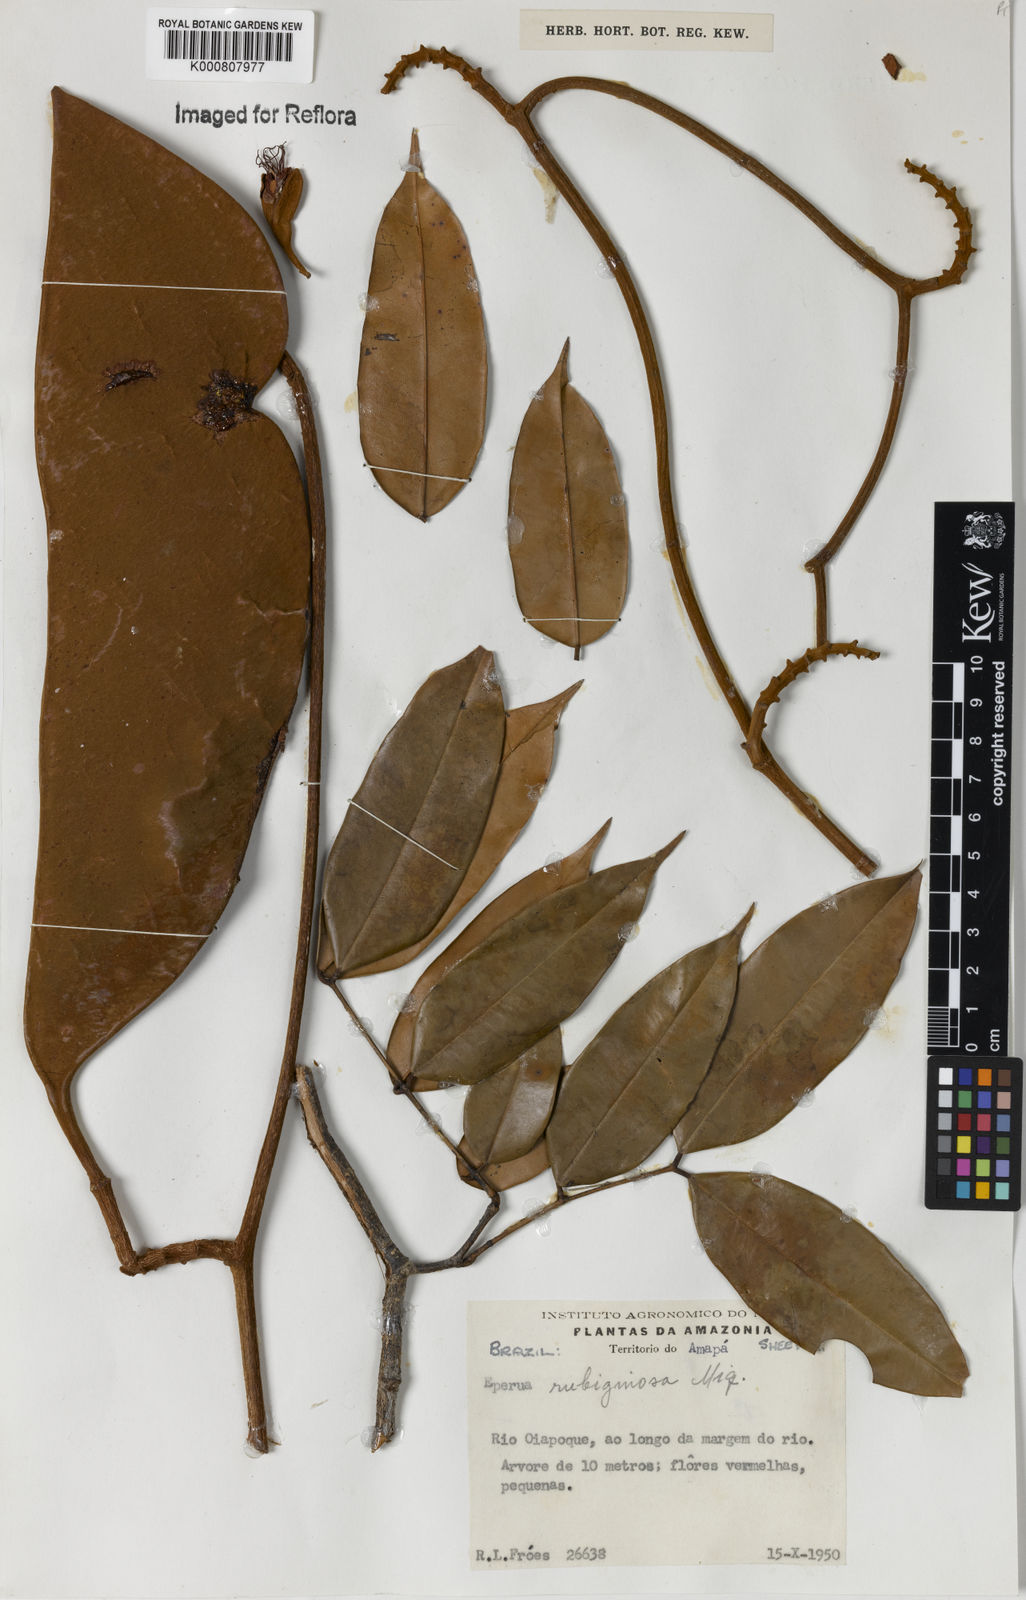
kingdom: Plantae
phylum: Tracheophyta
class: Magnoliopsida
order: Fabales
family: Fabaceae
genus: Eperua
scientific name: Eperua rubiginosa
